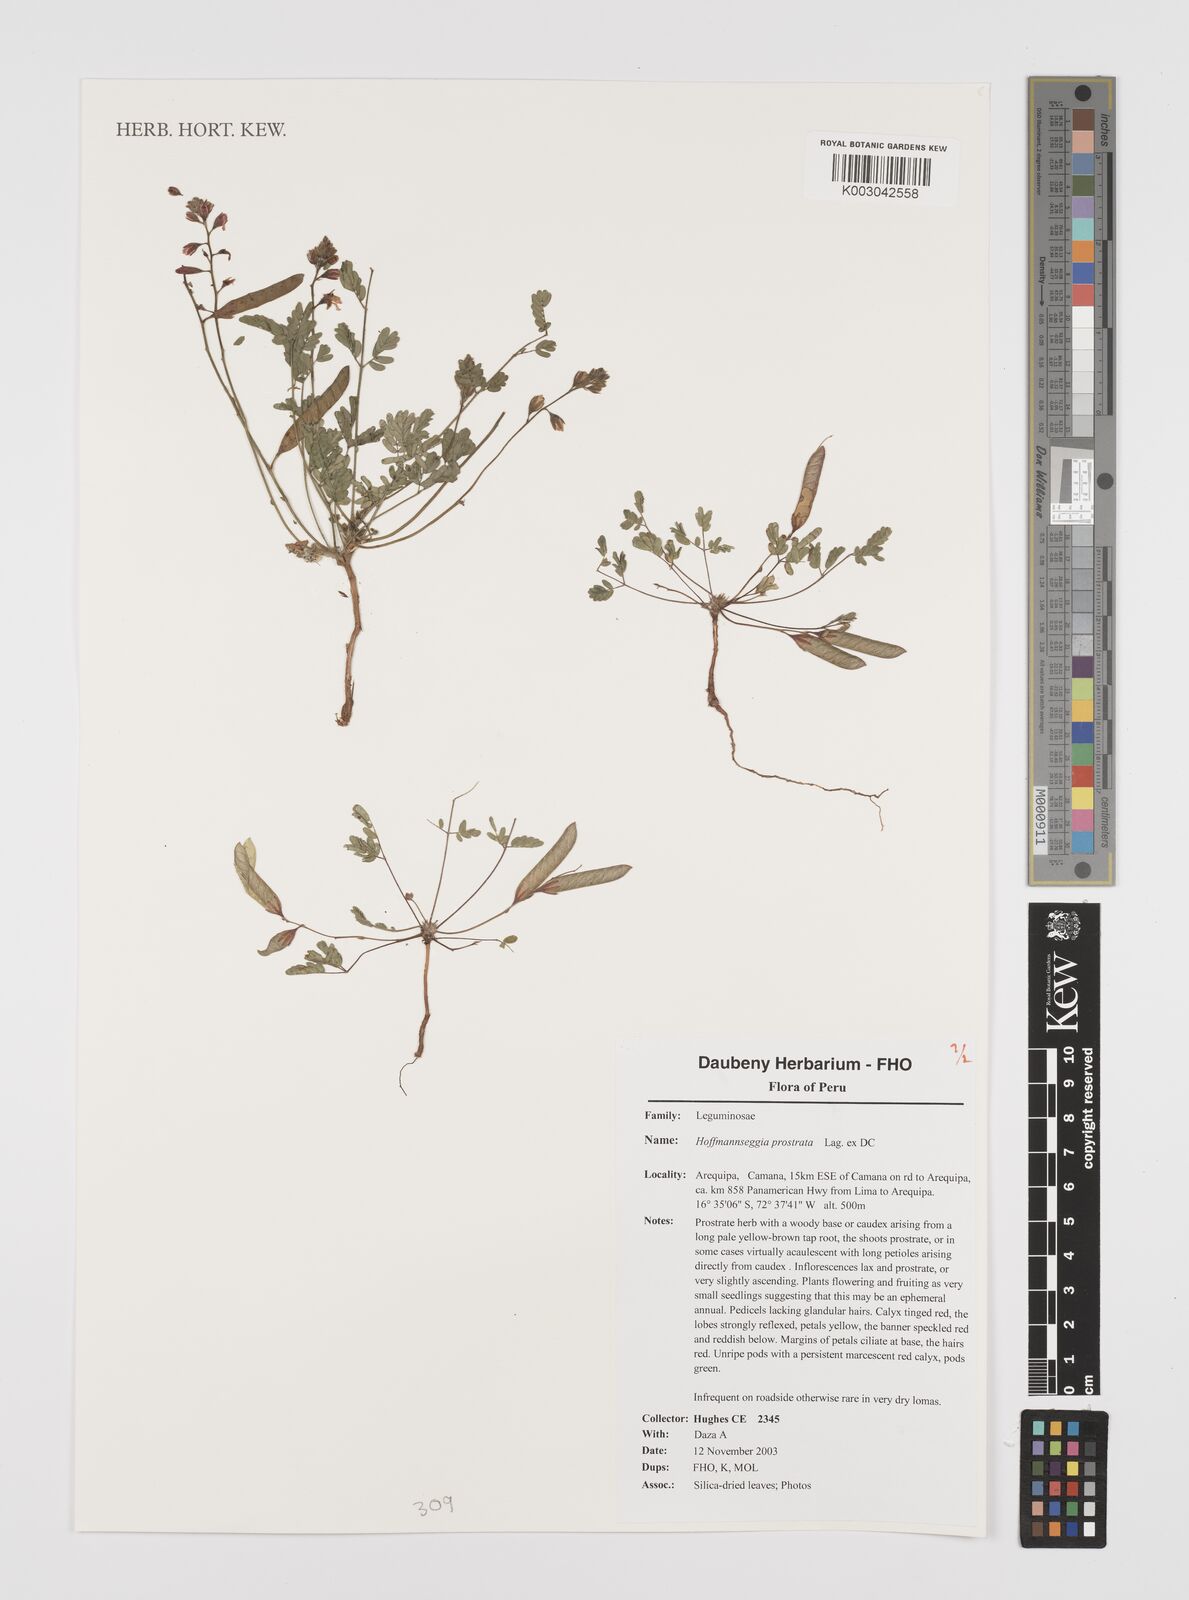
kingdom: Plantae
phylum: Tracheophyta
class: Magnoliopsida
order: Fabales
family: Fabaceae
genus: Hoffmannseggia
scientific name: Hoffmannseggia prostrata
